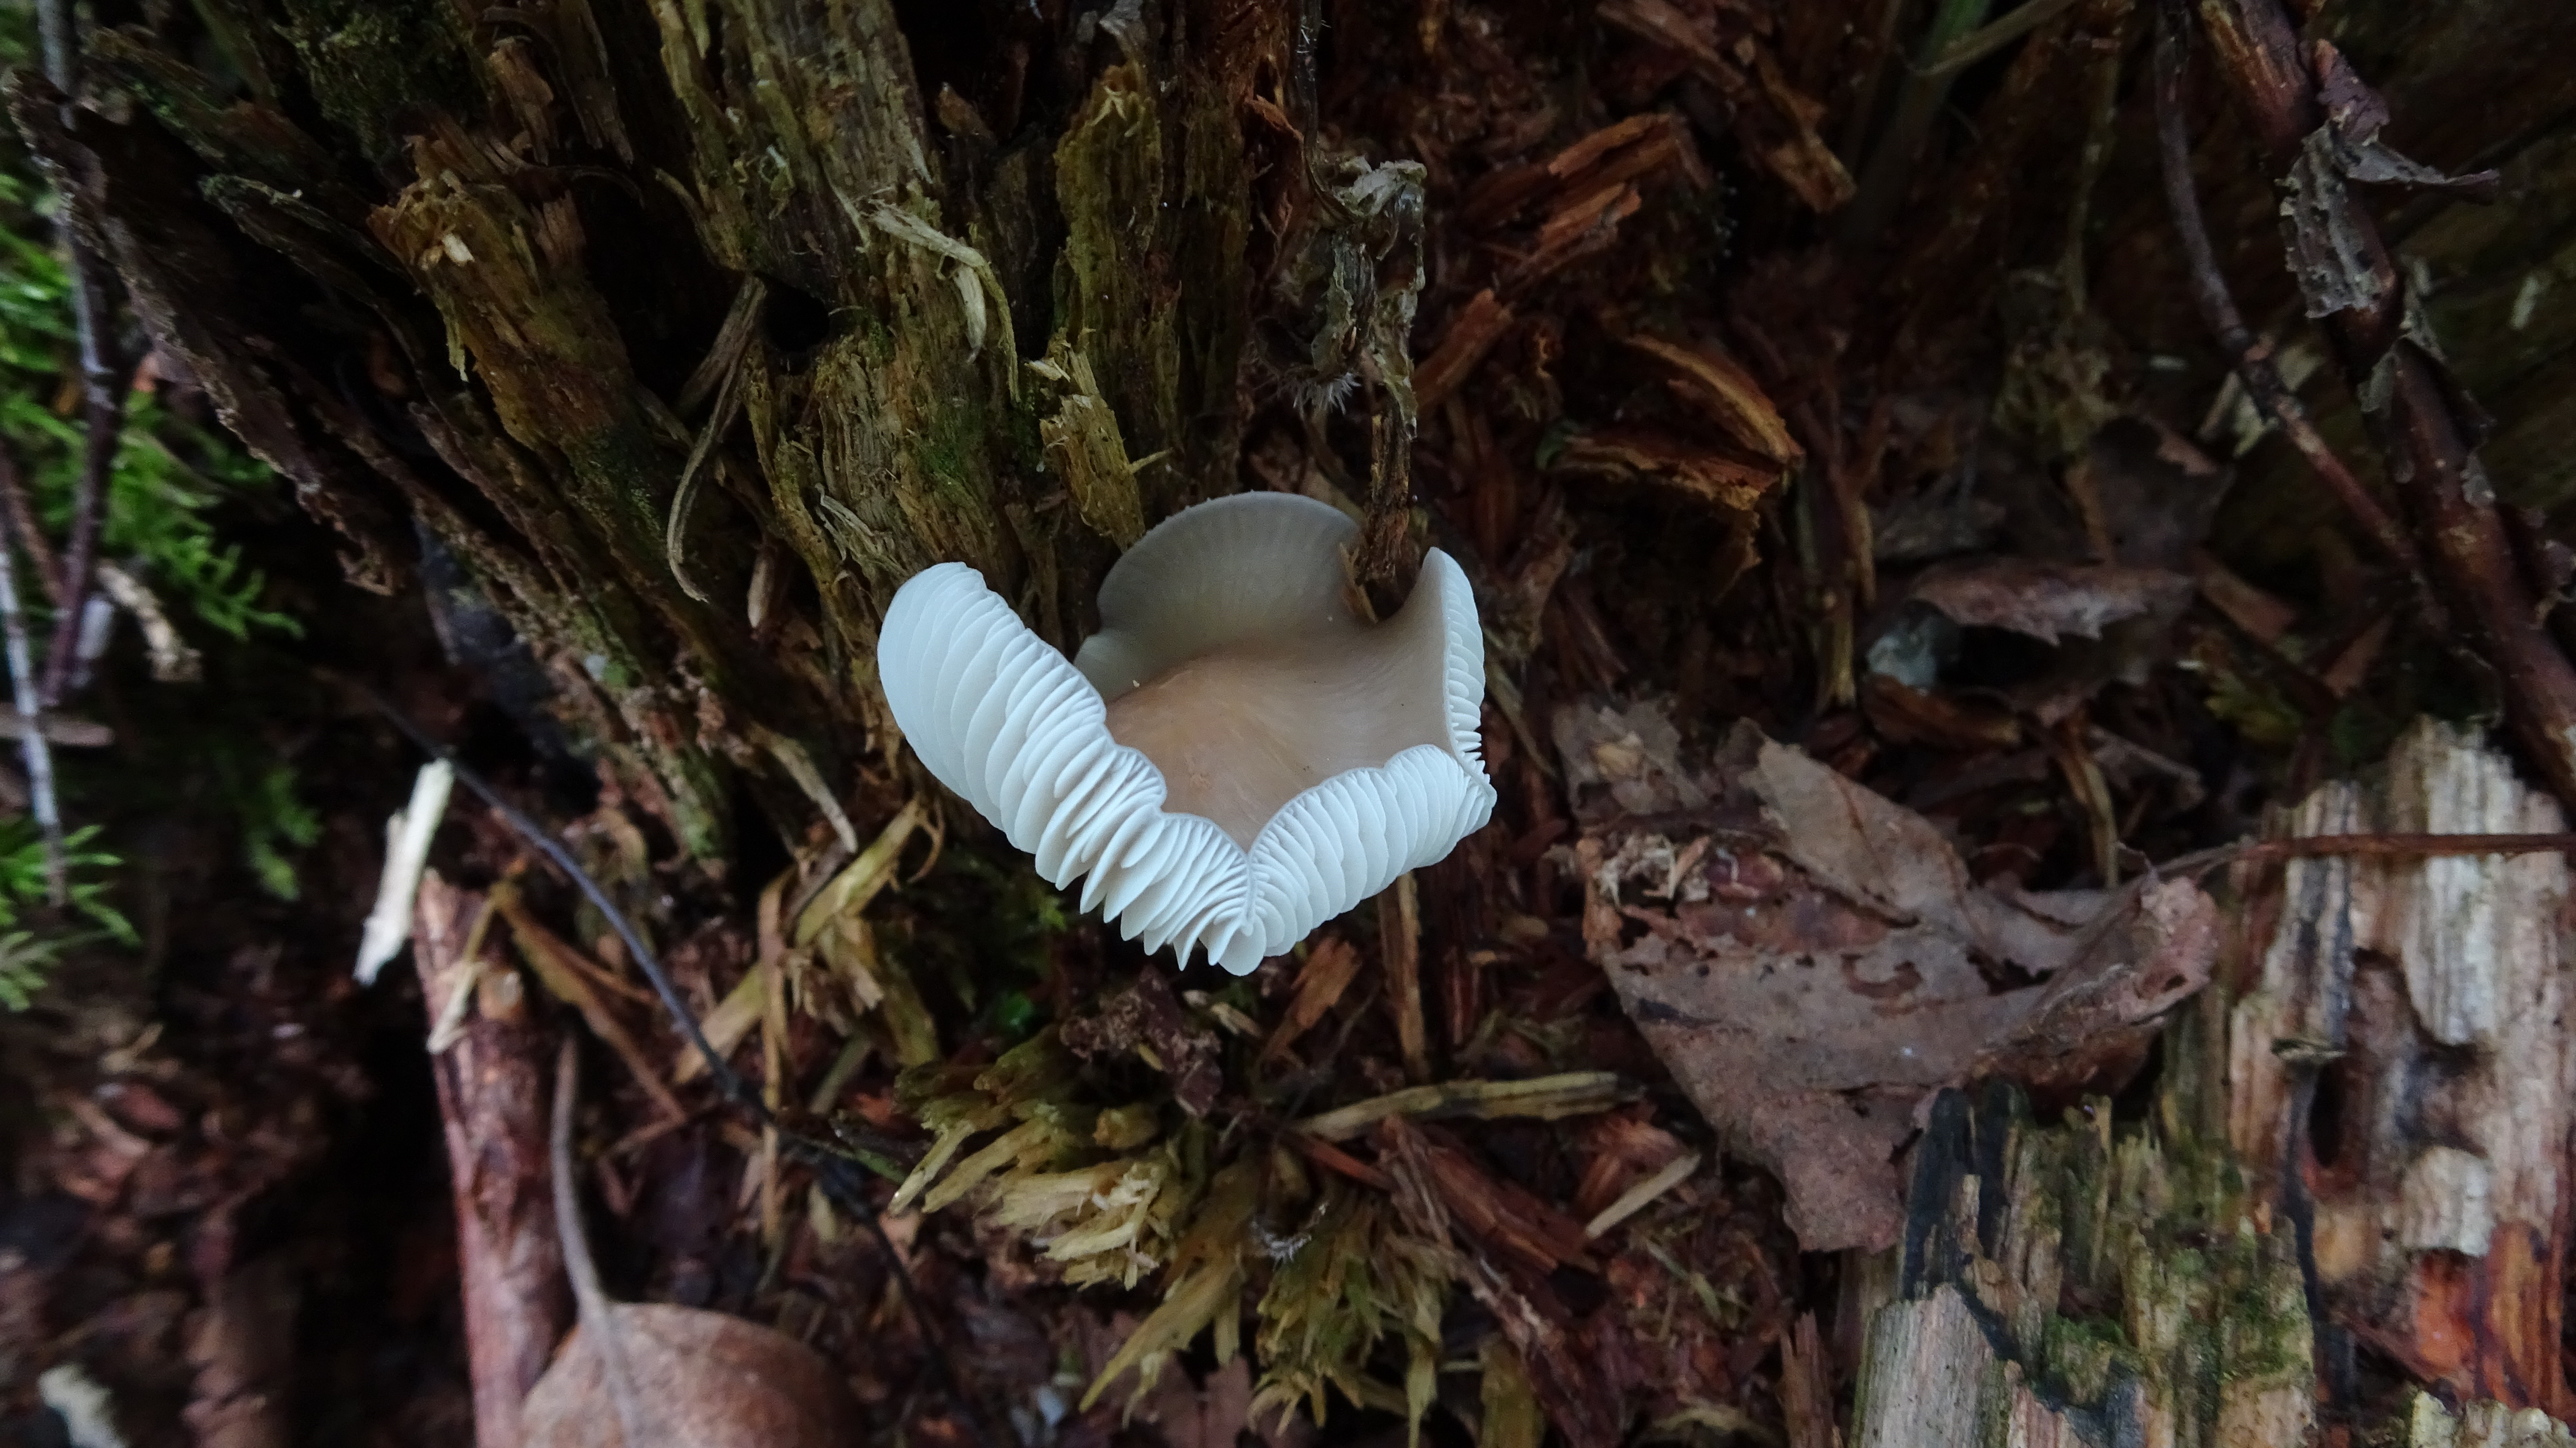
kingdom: Fungi
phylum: Basidiomycota
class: Agaricomycetes
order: Agaricales
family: Mycenaceae
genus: Mycena
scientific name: Mycena galericulata
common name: Bonnet mycena
